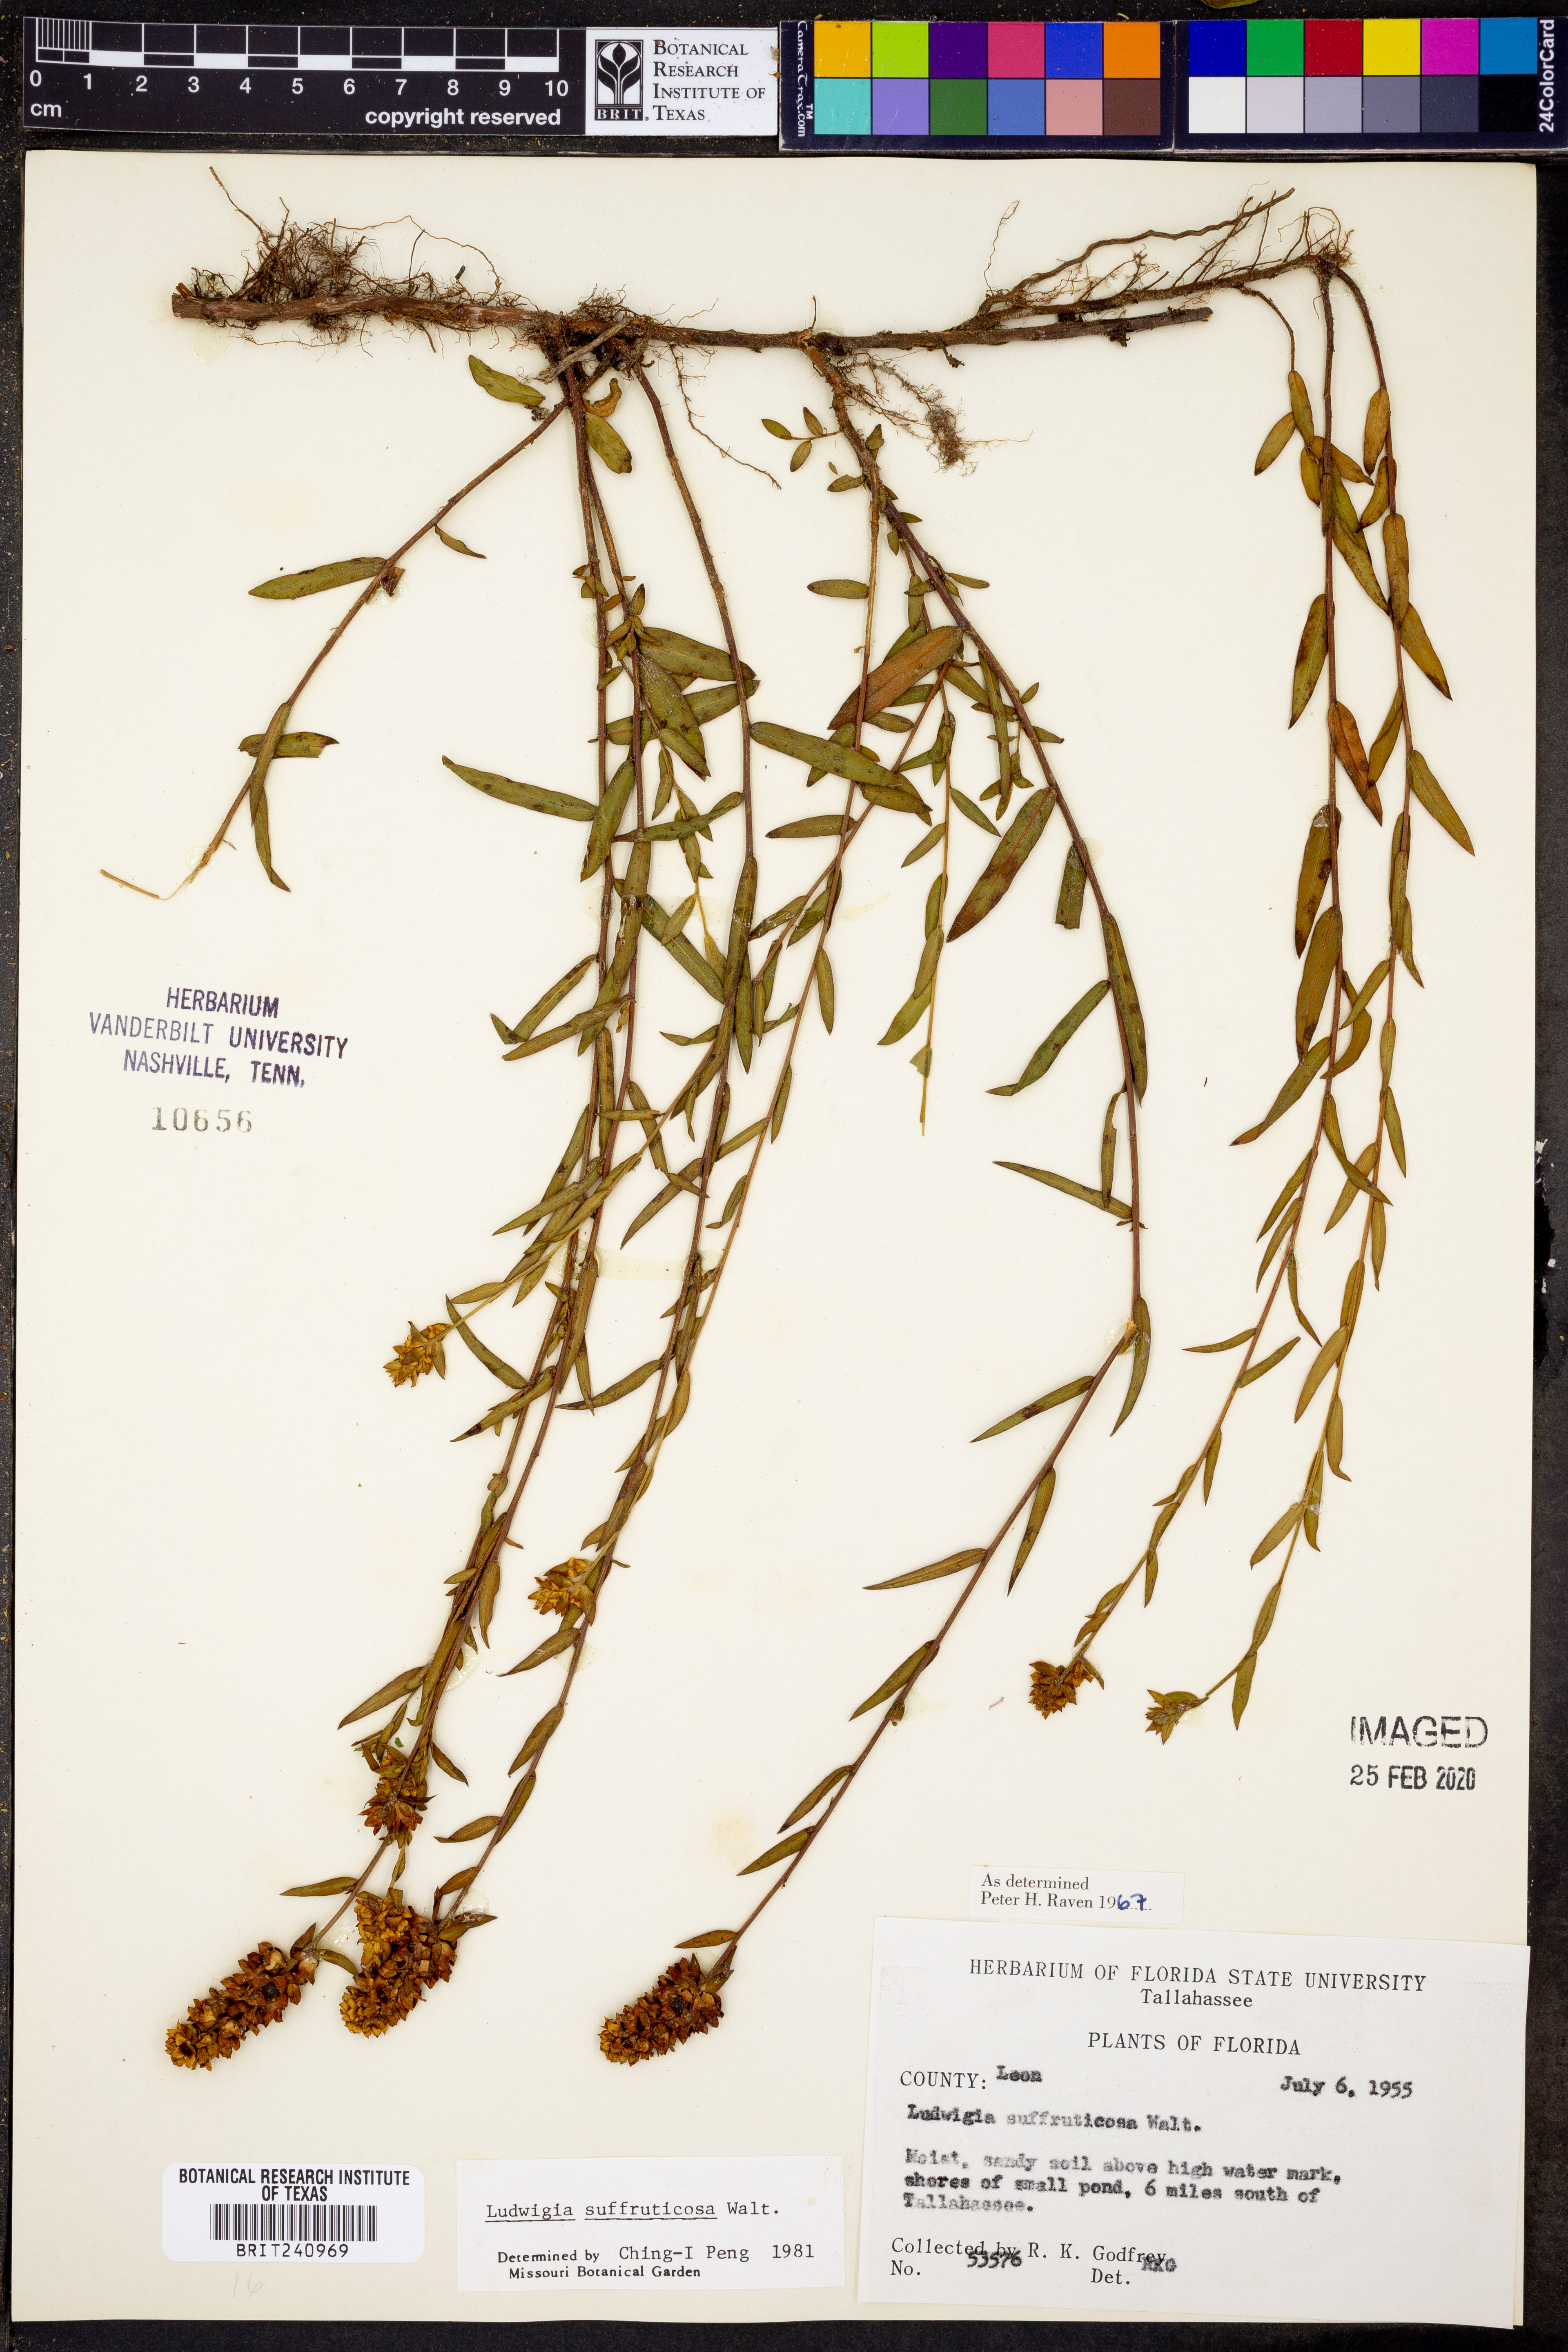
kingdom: Plantae
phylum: Tracheophyta
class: Magnoliopsida
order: Myrtales
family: Onagraceae
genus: Ludwigia
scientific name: Ludwigia suffruticosa
